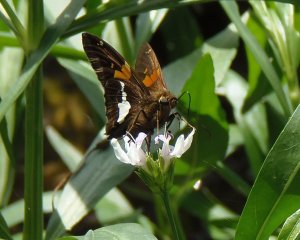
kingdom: Animalia
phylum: Arthropoda
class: Insecta
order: Lepidoptera
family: Hesperiidae
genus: Epargyreus
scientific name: Epargyreus clarus
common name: Silver-spotted Skipper
